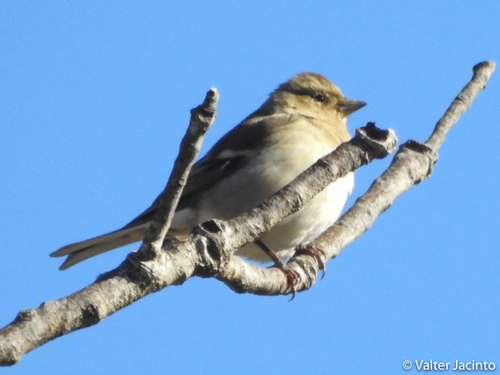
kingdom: Animalia
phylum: Chordata
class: Aves
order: Passeriformes
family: Fringillidae
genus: Fringilla
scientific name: Fringilla coelebs
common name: Common chaffinch
